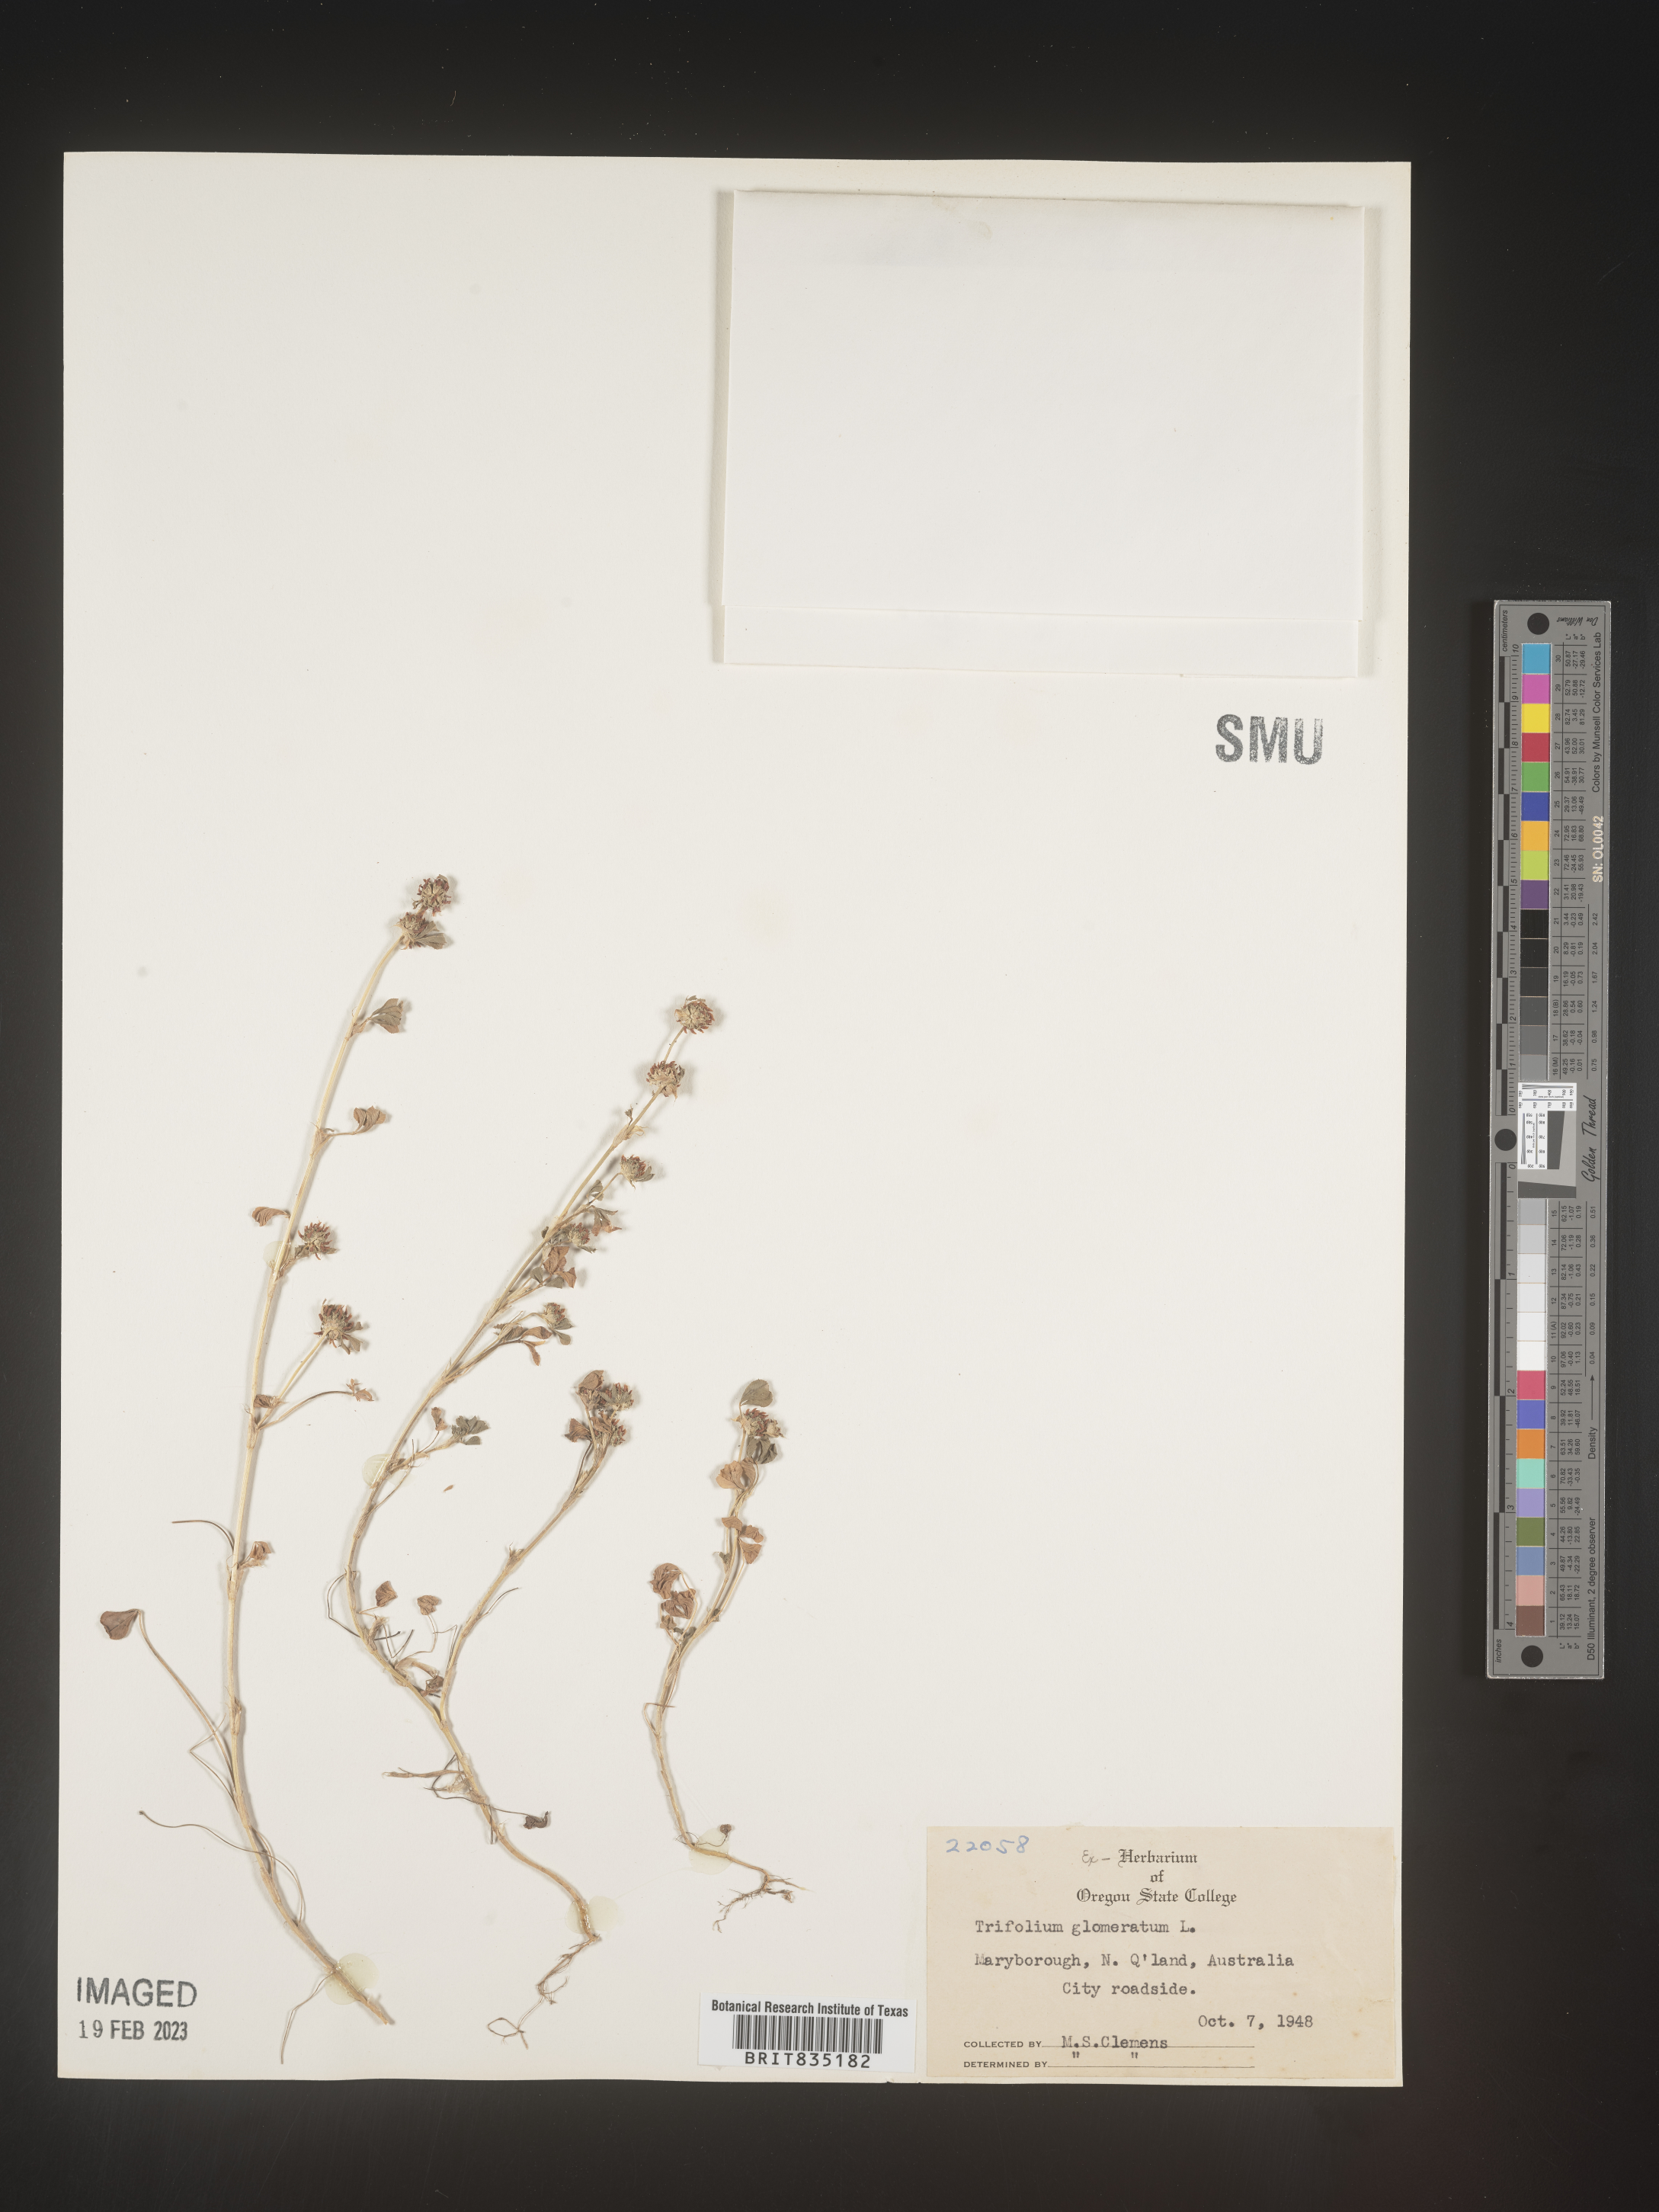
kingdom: Plantae
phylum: Tracheophyta
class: Magnoliopsida
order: Fabales
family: Fabaceae
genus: Trifolium
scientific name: Trifolium
